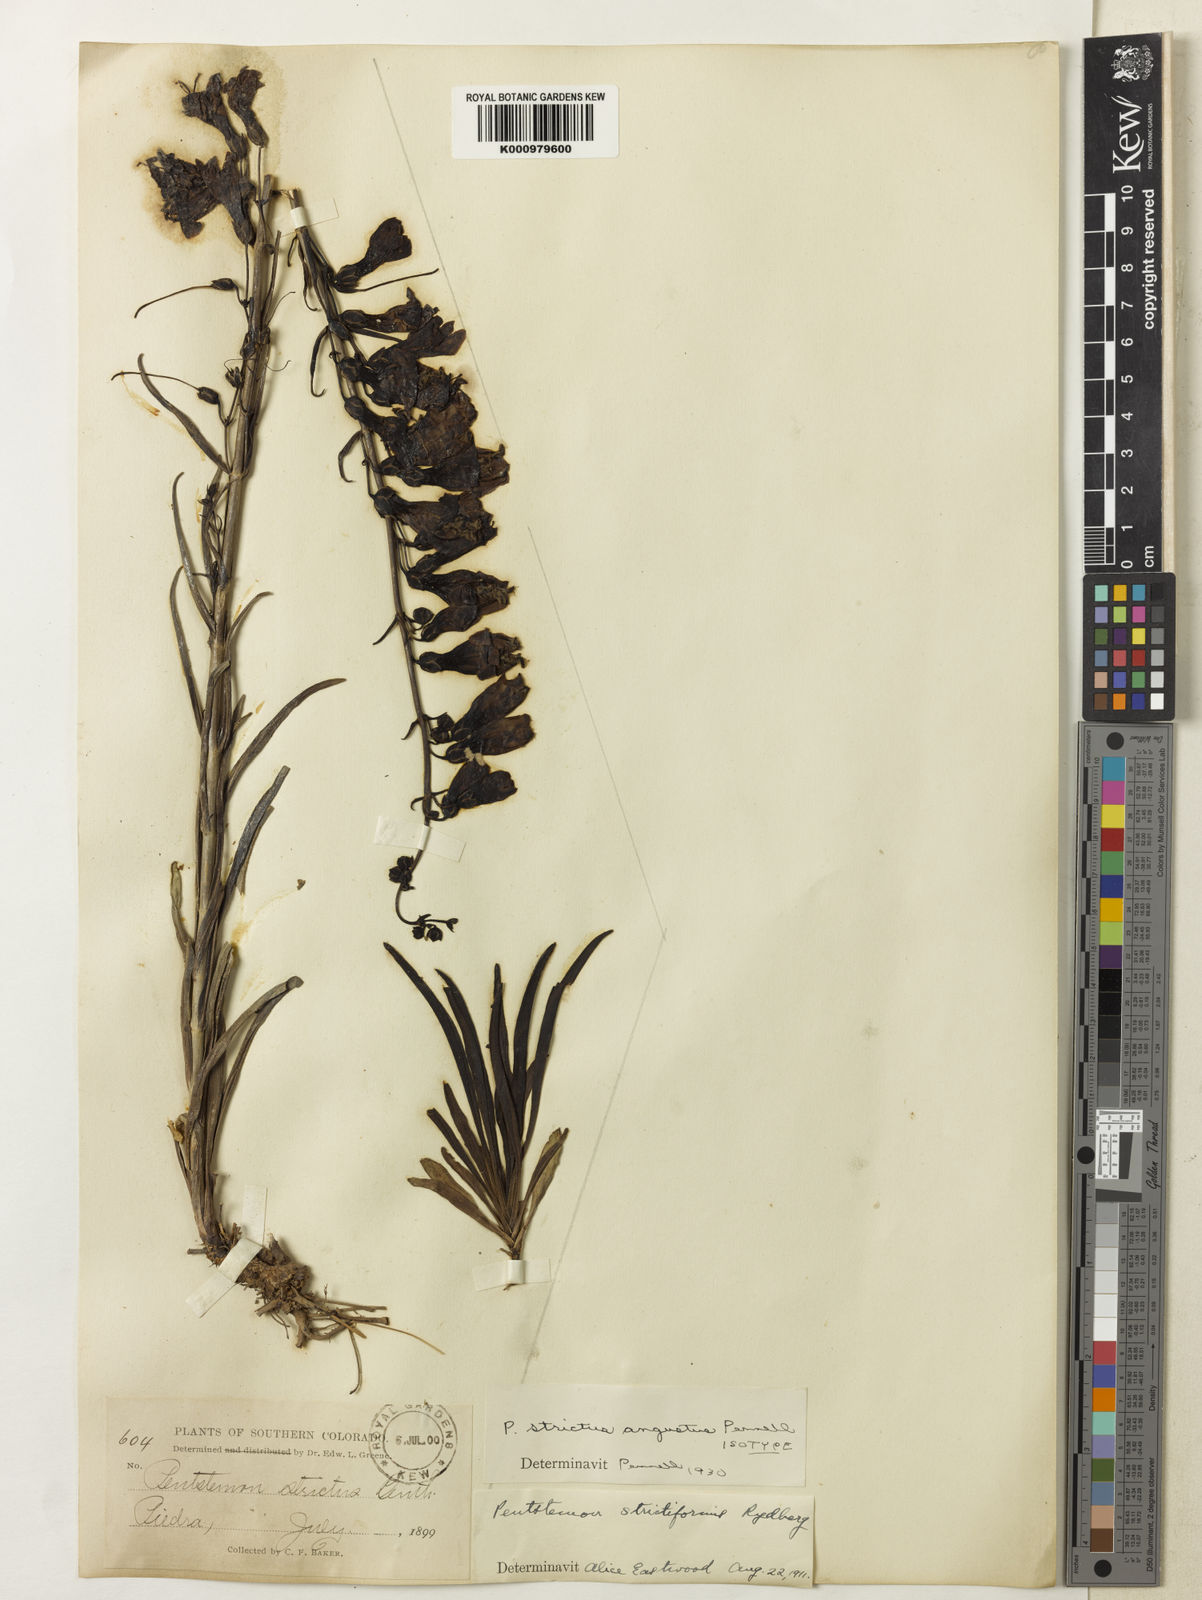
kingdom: Plantae
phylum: Tracheophyta
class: Magnoliopsida
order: Lamiales
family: Plantaginaceae
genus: Penstemon
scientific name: Penstemon
